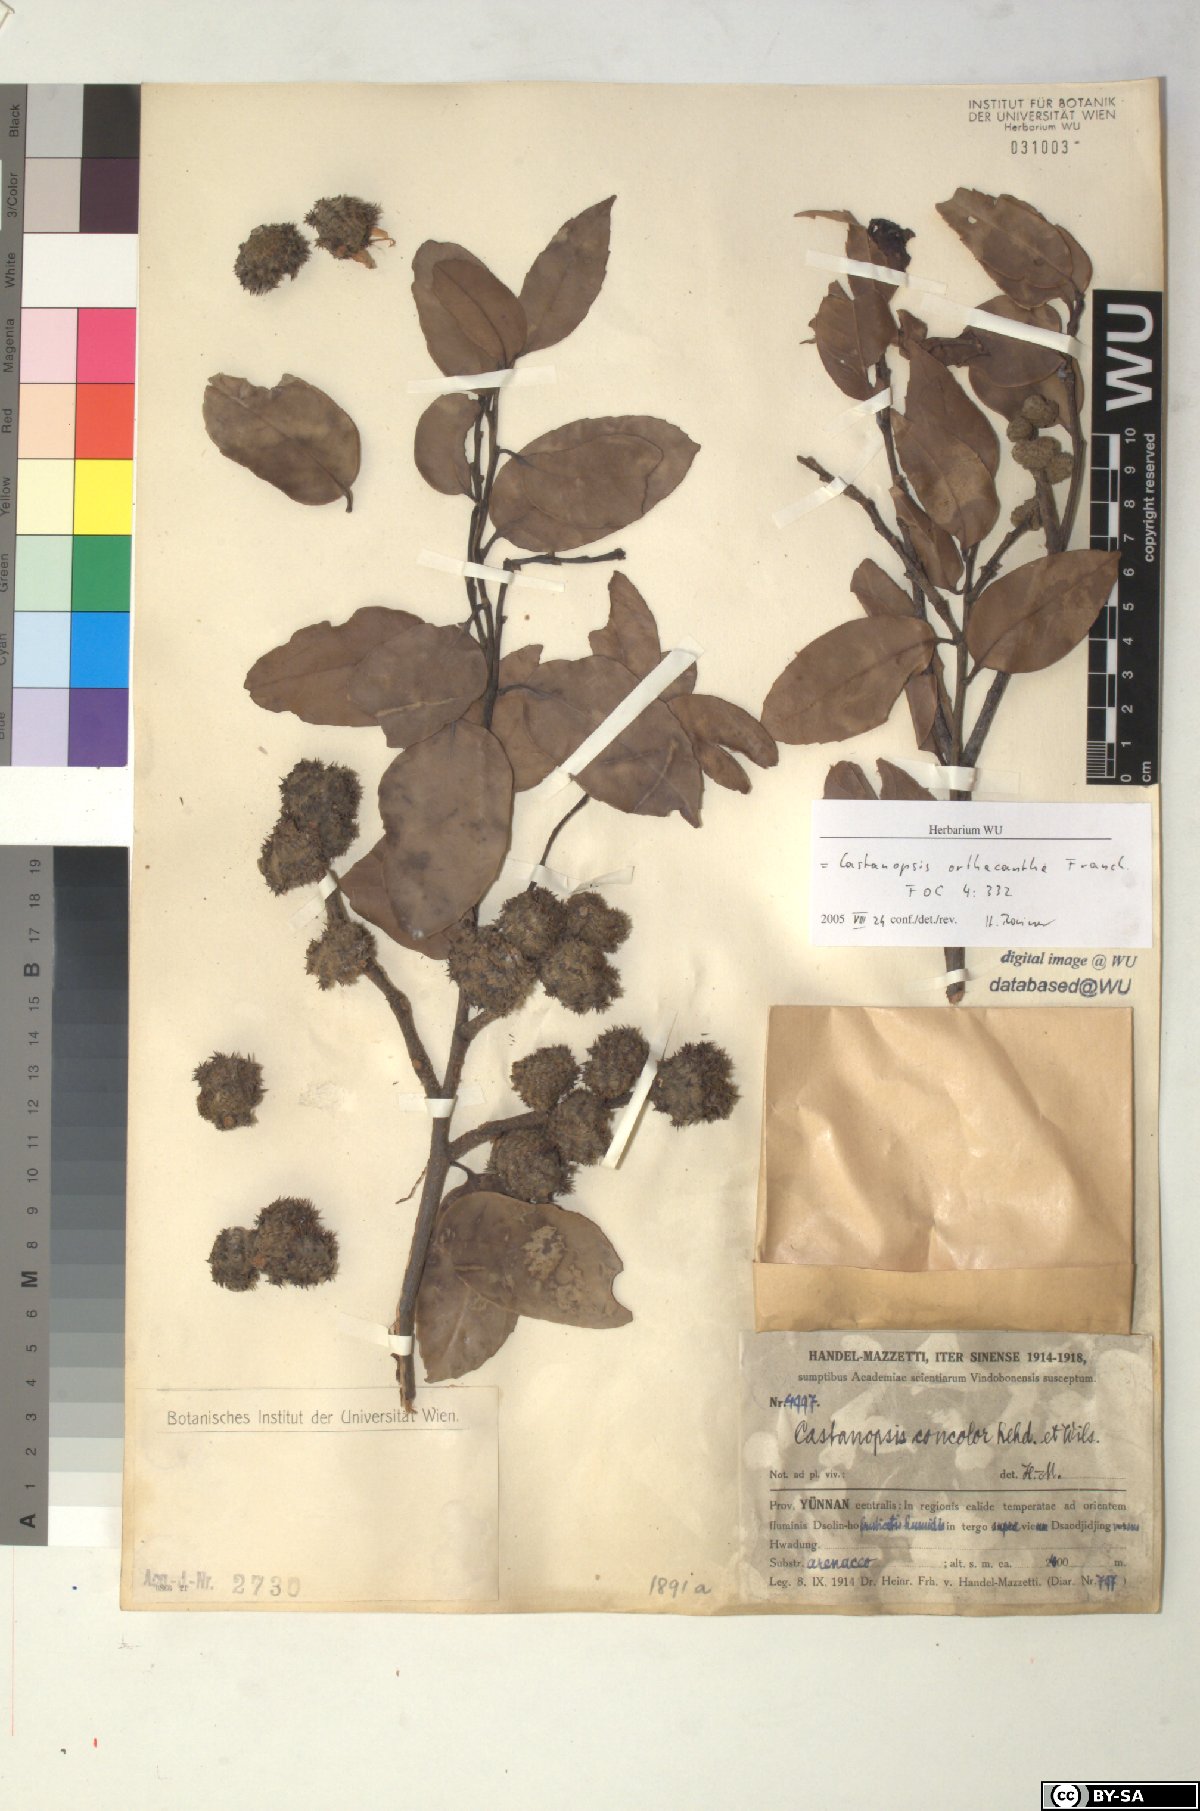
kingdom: Plantae
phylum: Tracheophyta
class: Magnoliopsida
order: Fagales
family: Fagaceae
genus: Castanopsis
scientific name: Castanopsis orthacantha
